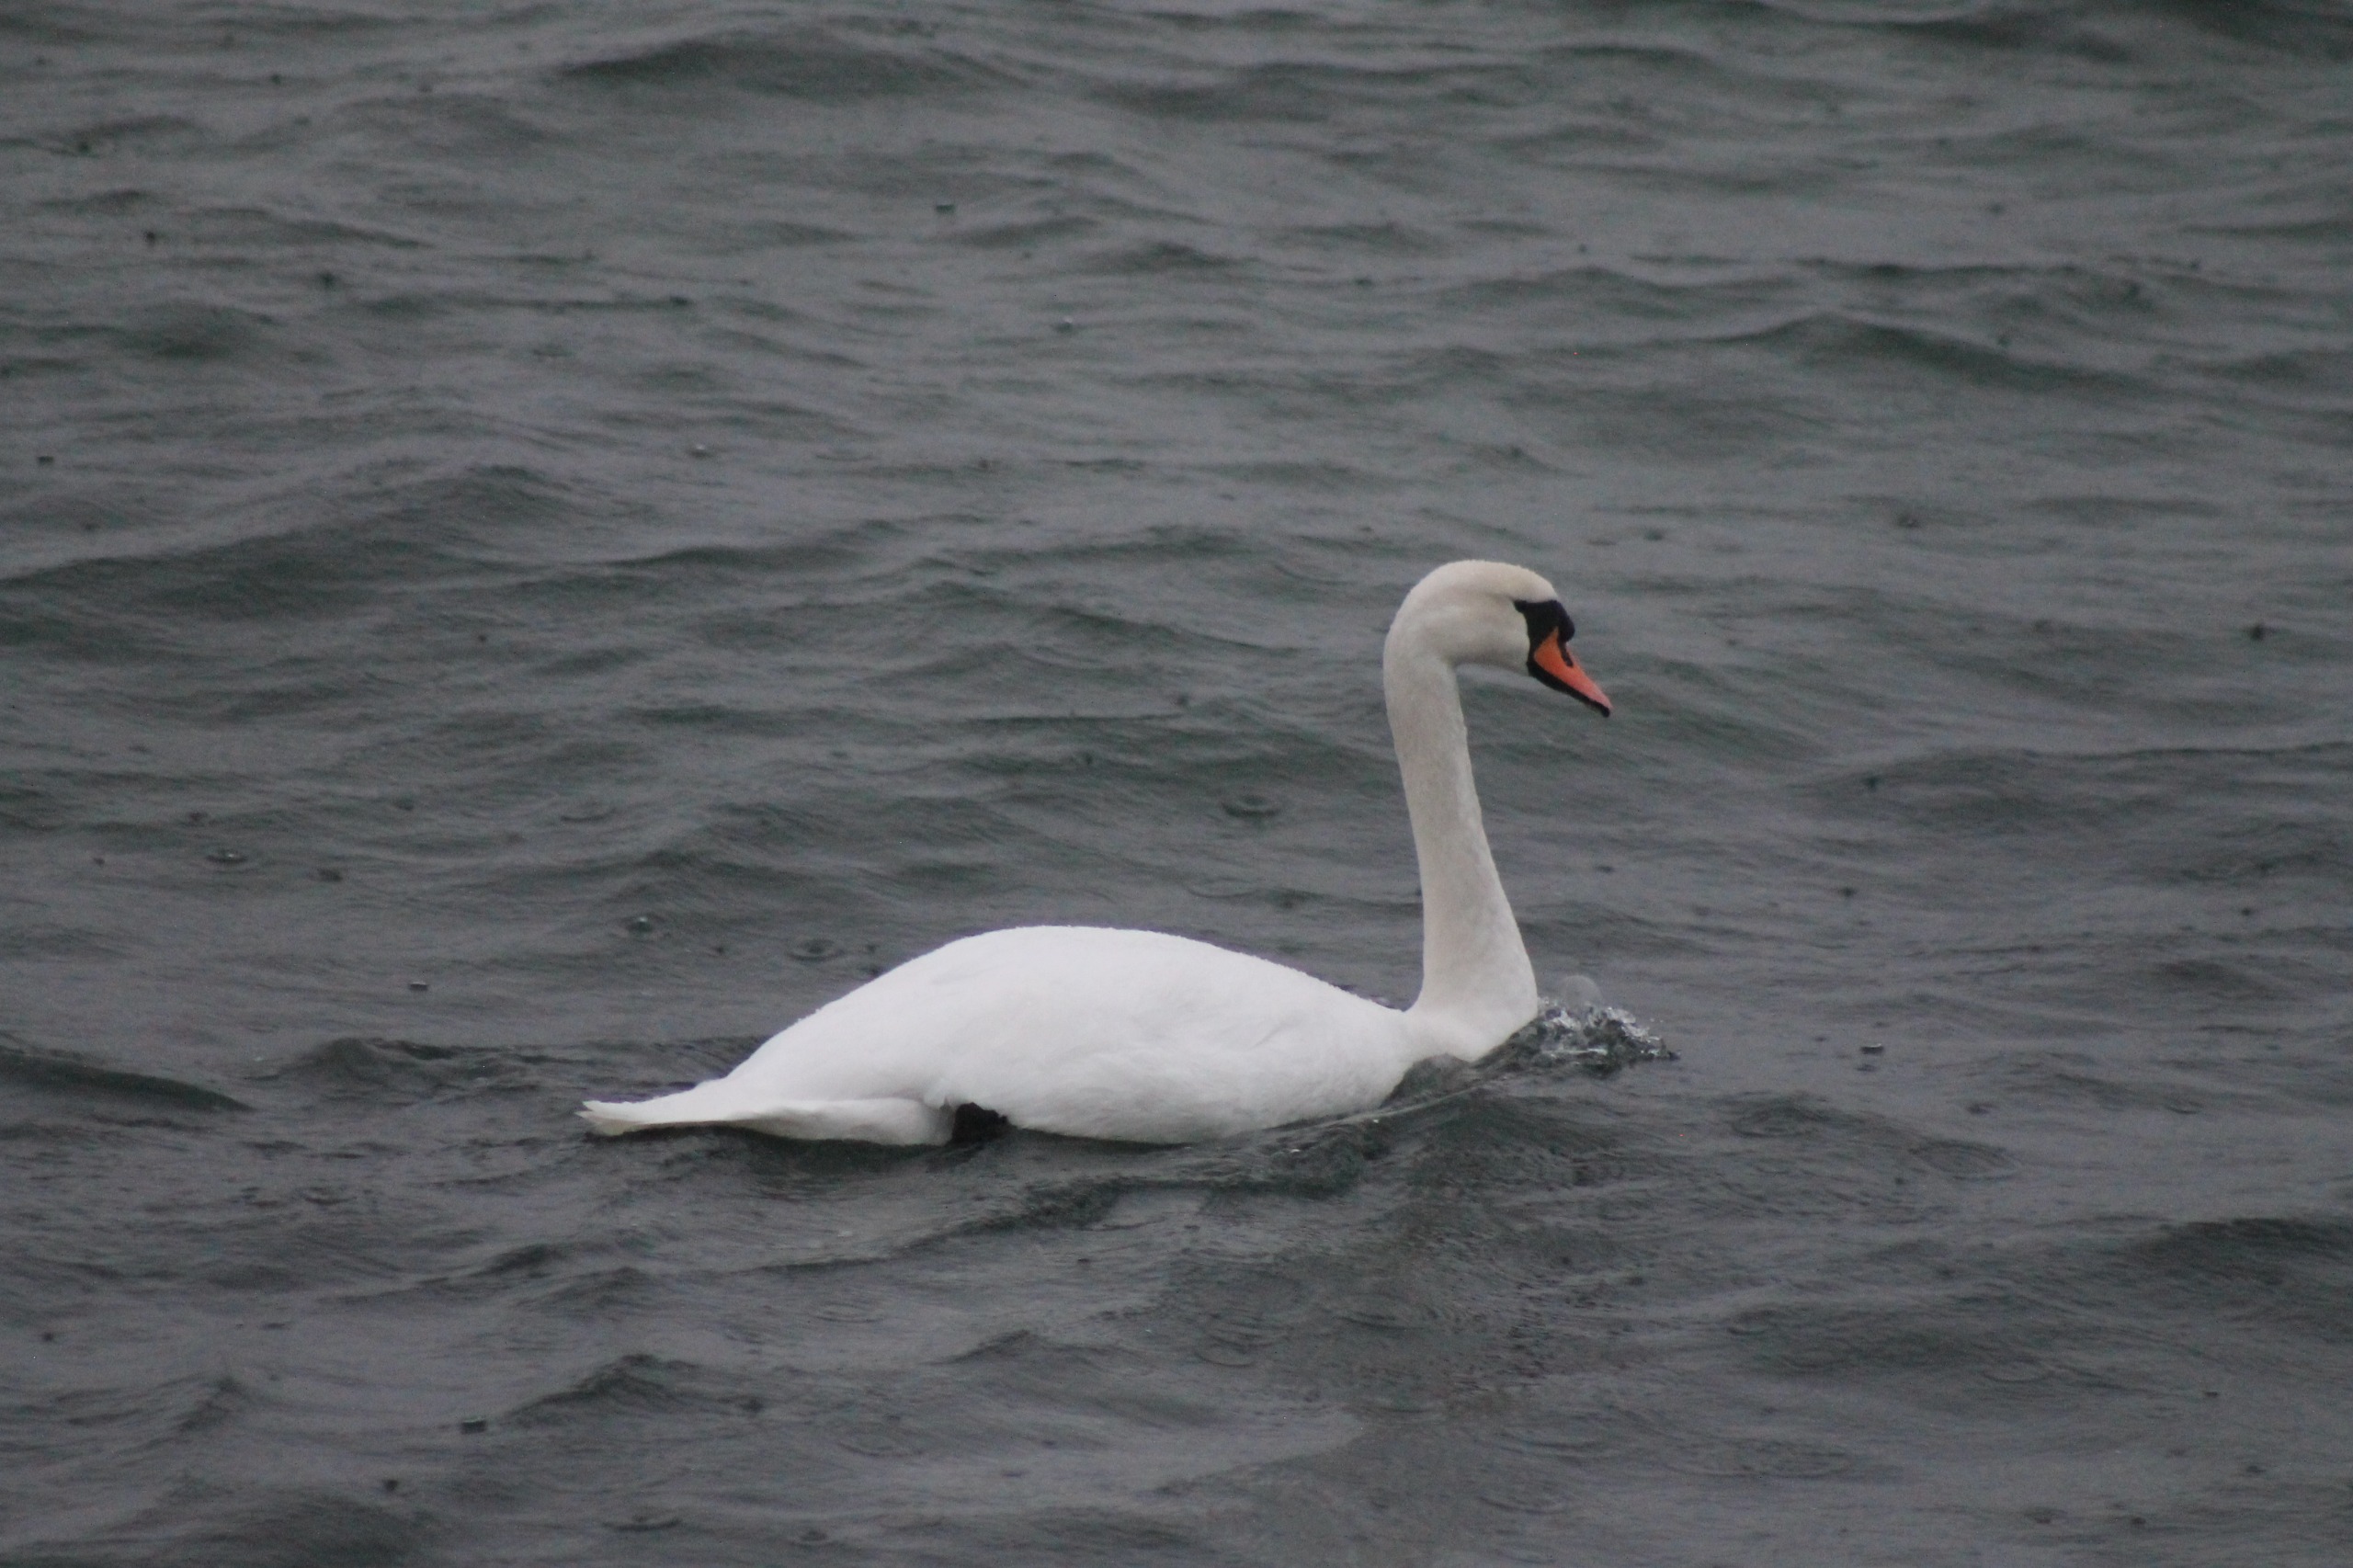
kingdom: Animalia
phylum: Chordata
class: Aves
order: Anseriformes
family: Anatidae
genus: Cygnus
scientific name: Cygnus olor
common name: Knopsvane
